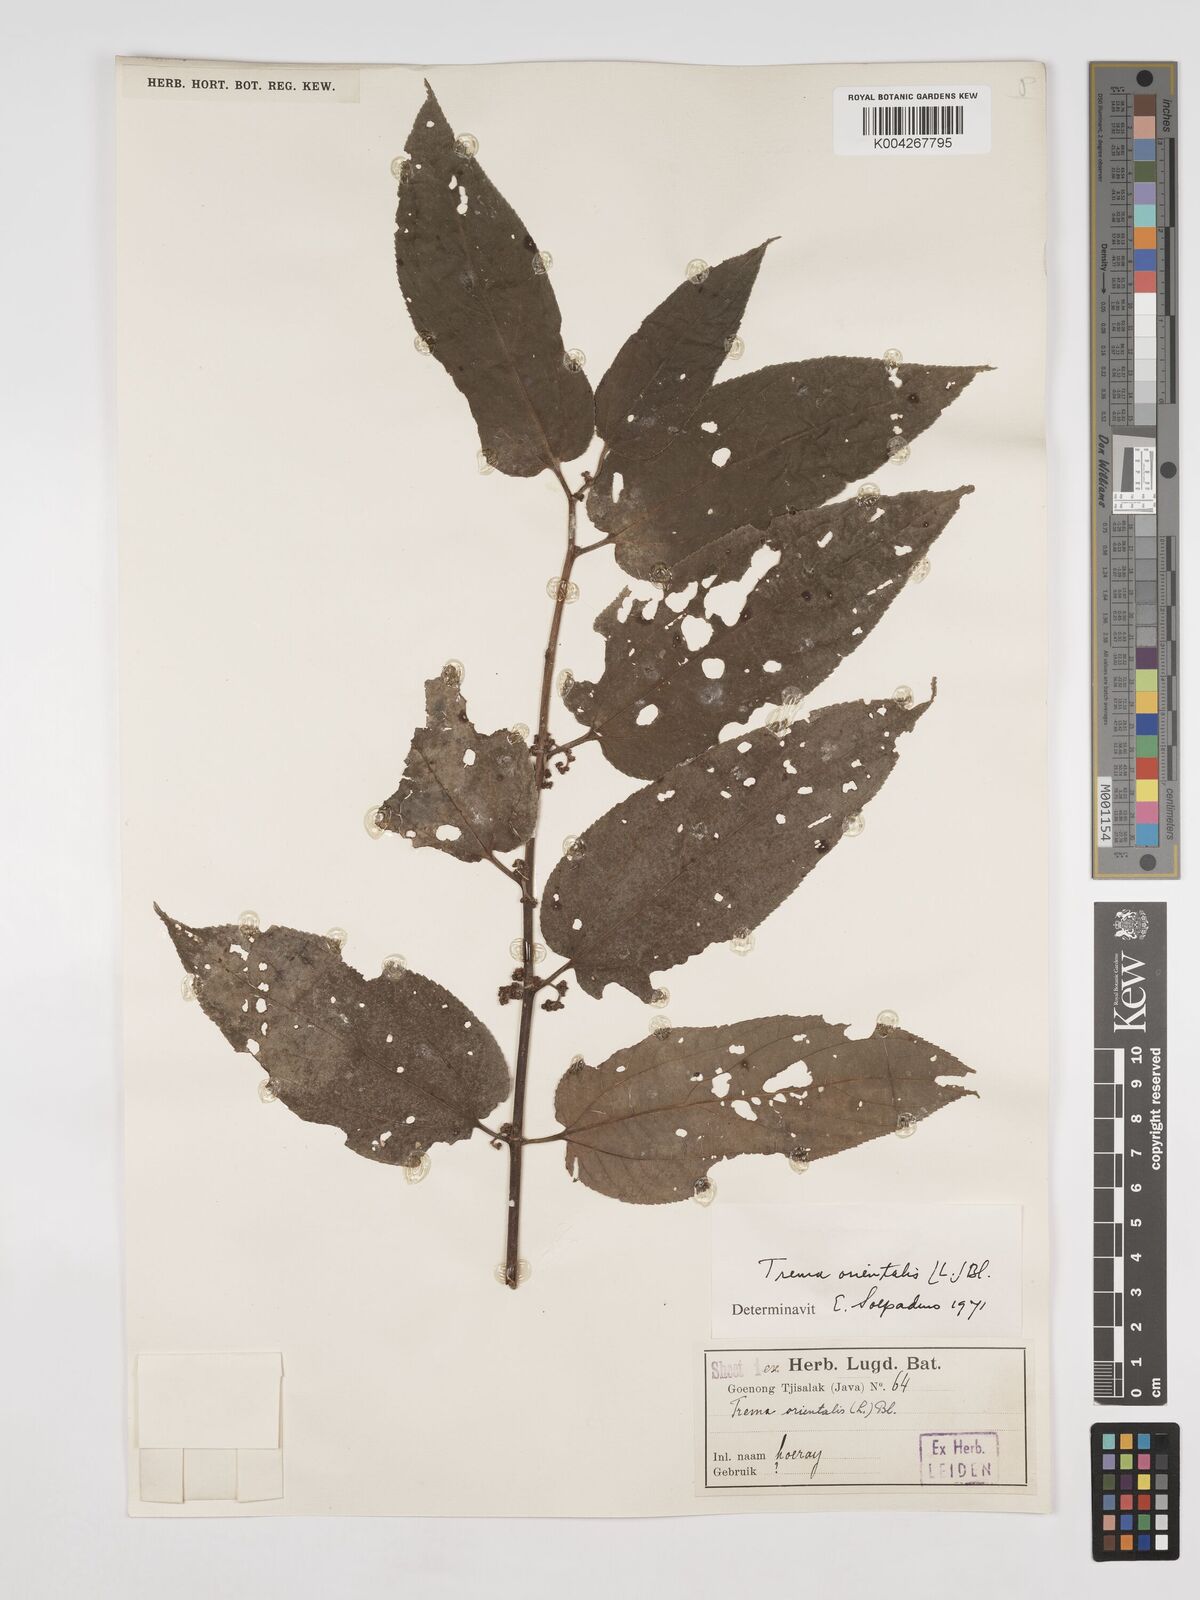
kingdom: Plantae
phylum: Tracheophyta
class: Magnoliopsida
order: Rosales
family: Cannabaceae
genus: Trema
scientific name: Trema orientale
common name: Indian charcoal tree
